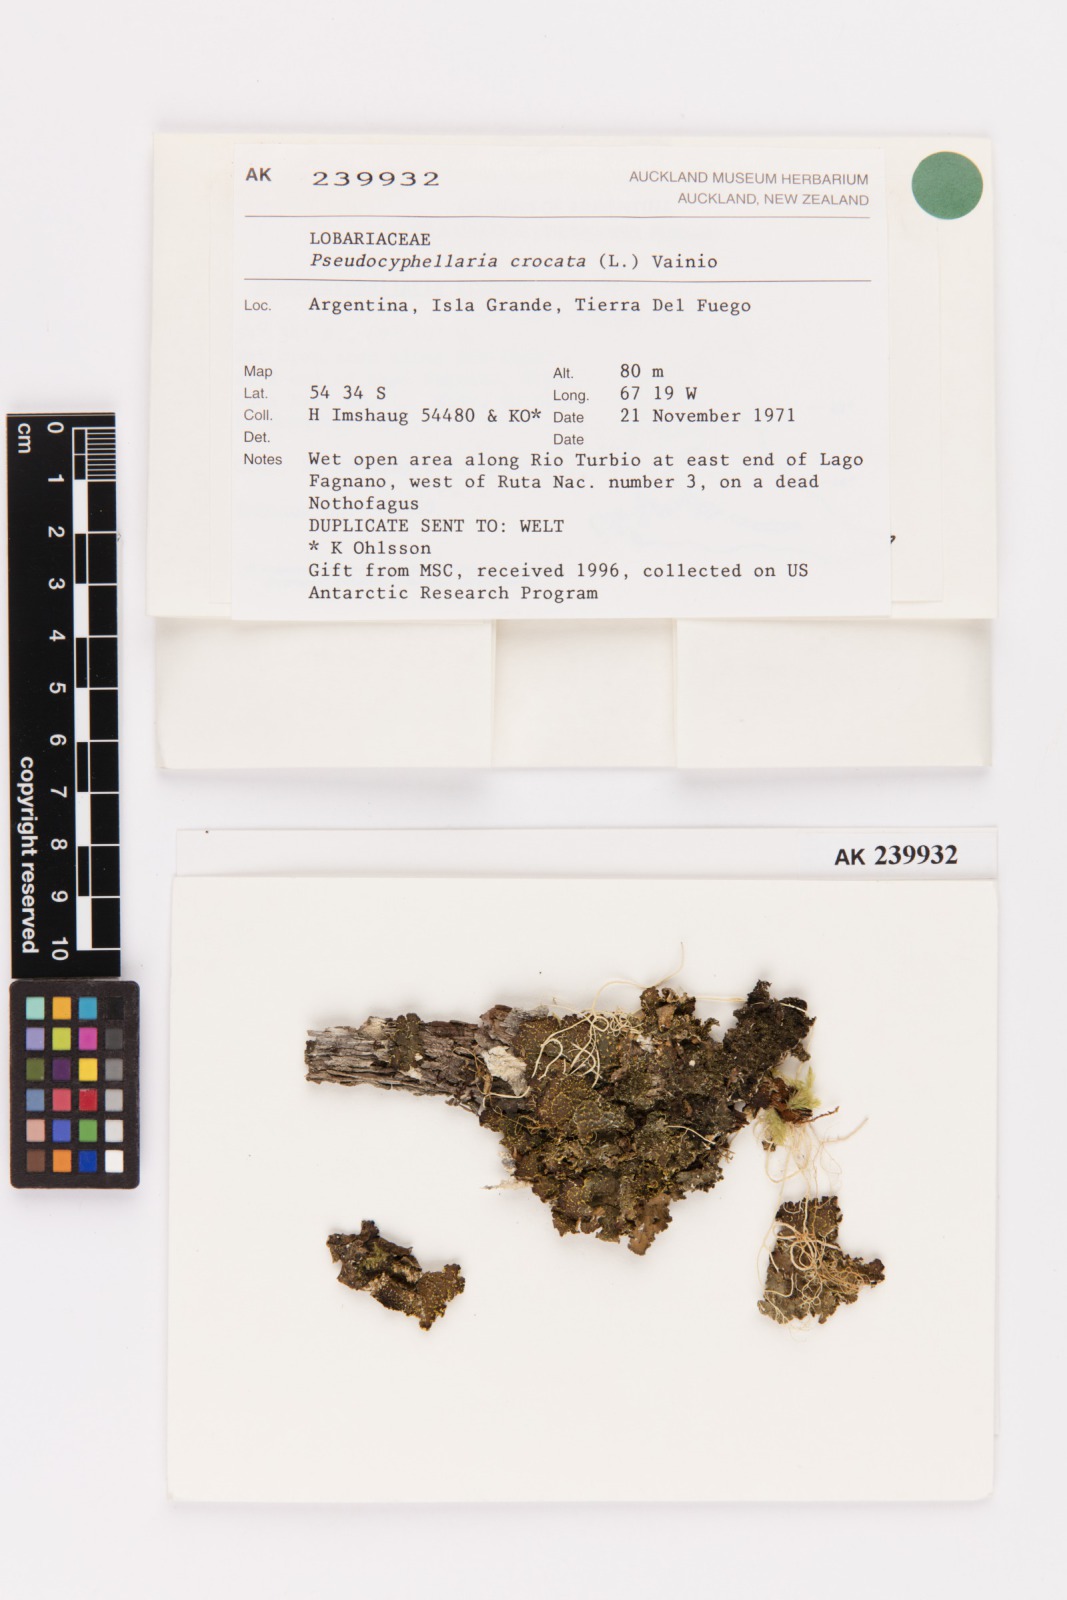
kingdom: Fungi
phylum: Ascomycota
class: Lecanoromycetes
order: Peltigerales
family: Lobariaceae
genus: Pseudocyphellaria
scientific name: Pseudocyphellaria crocata
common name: Golden specklebelly
